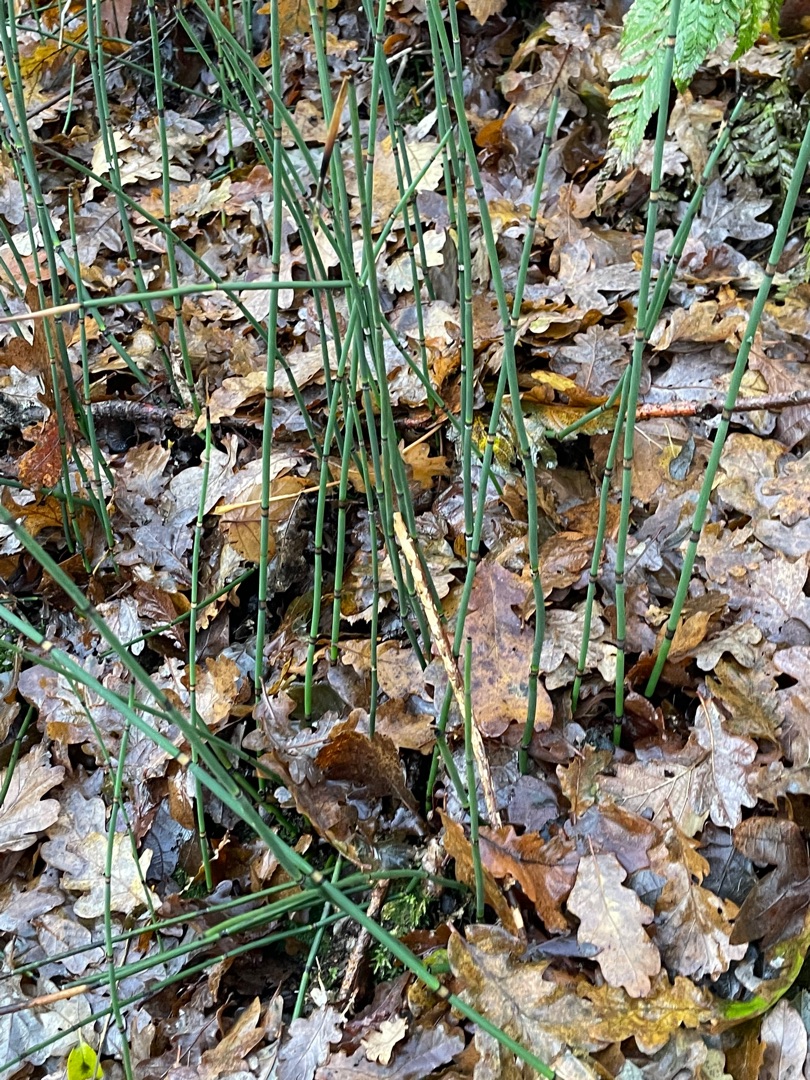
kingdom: Plantae
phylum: Tracheophyta
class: Polypodiopsida
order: Equisetales
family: Equisetaceae
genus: Equisetum
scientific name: Equisetum hyemale
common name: Skavgræs
